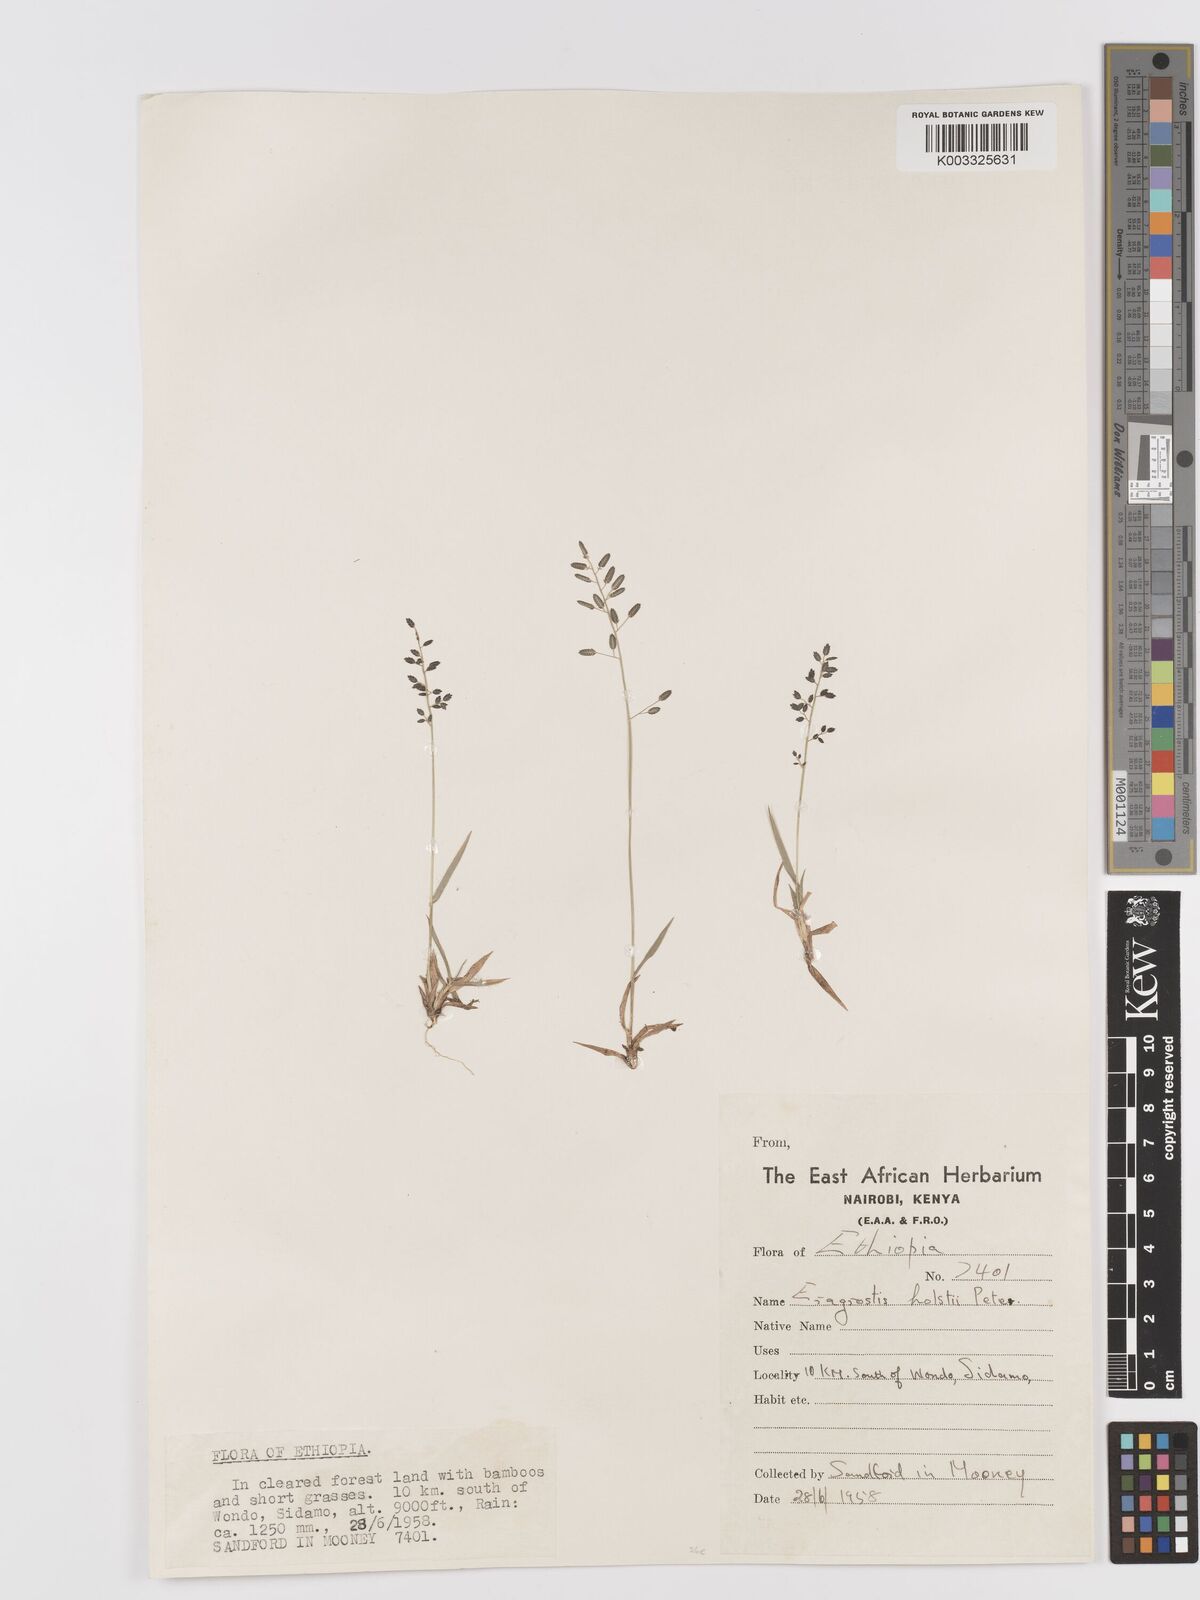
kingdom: Plantae
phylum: Tracheophyta
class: Liliopsida
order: Poales
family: Poaceae
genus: Eragrostis
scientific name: Eragrostis schweinfurthii
